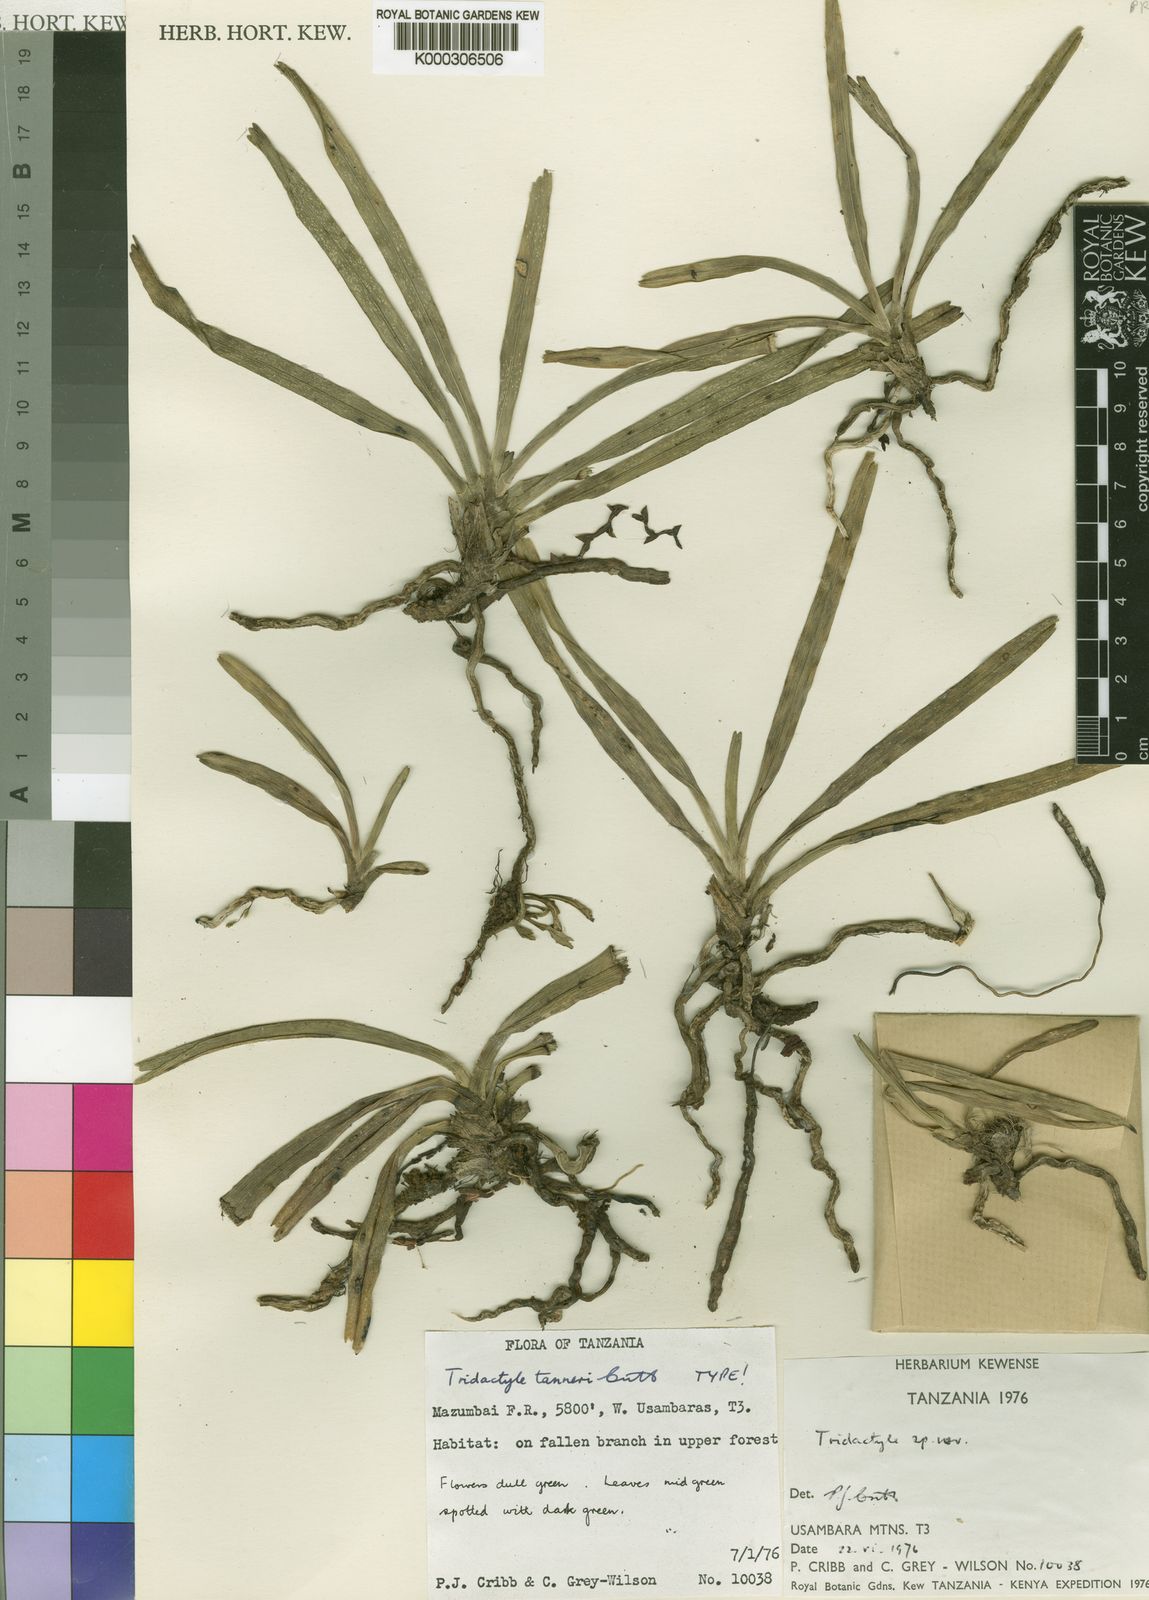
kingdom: Plantae
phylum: Tracheophyta
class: Liliopsida
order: Asparagales
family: Orchidaceae
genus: Ypsilopus
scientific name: Ypsilopus tanneri
